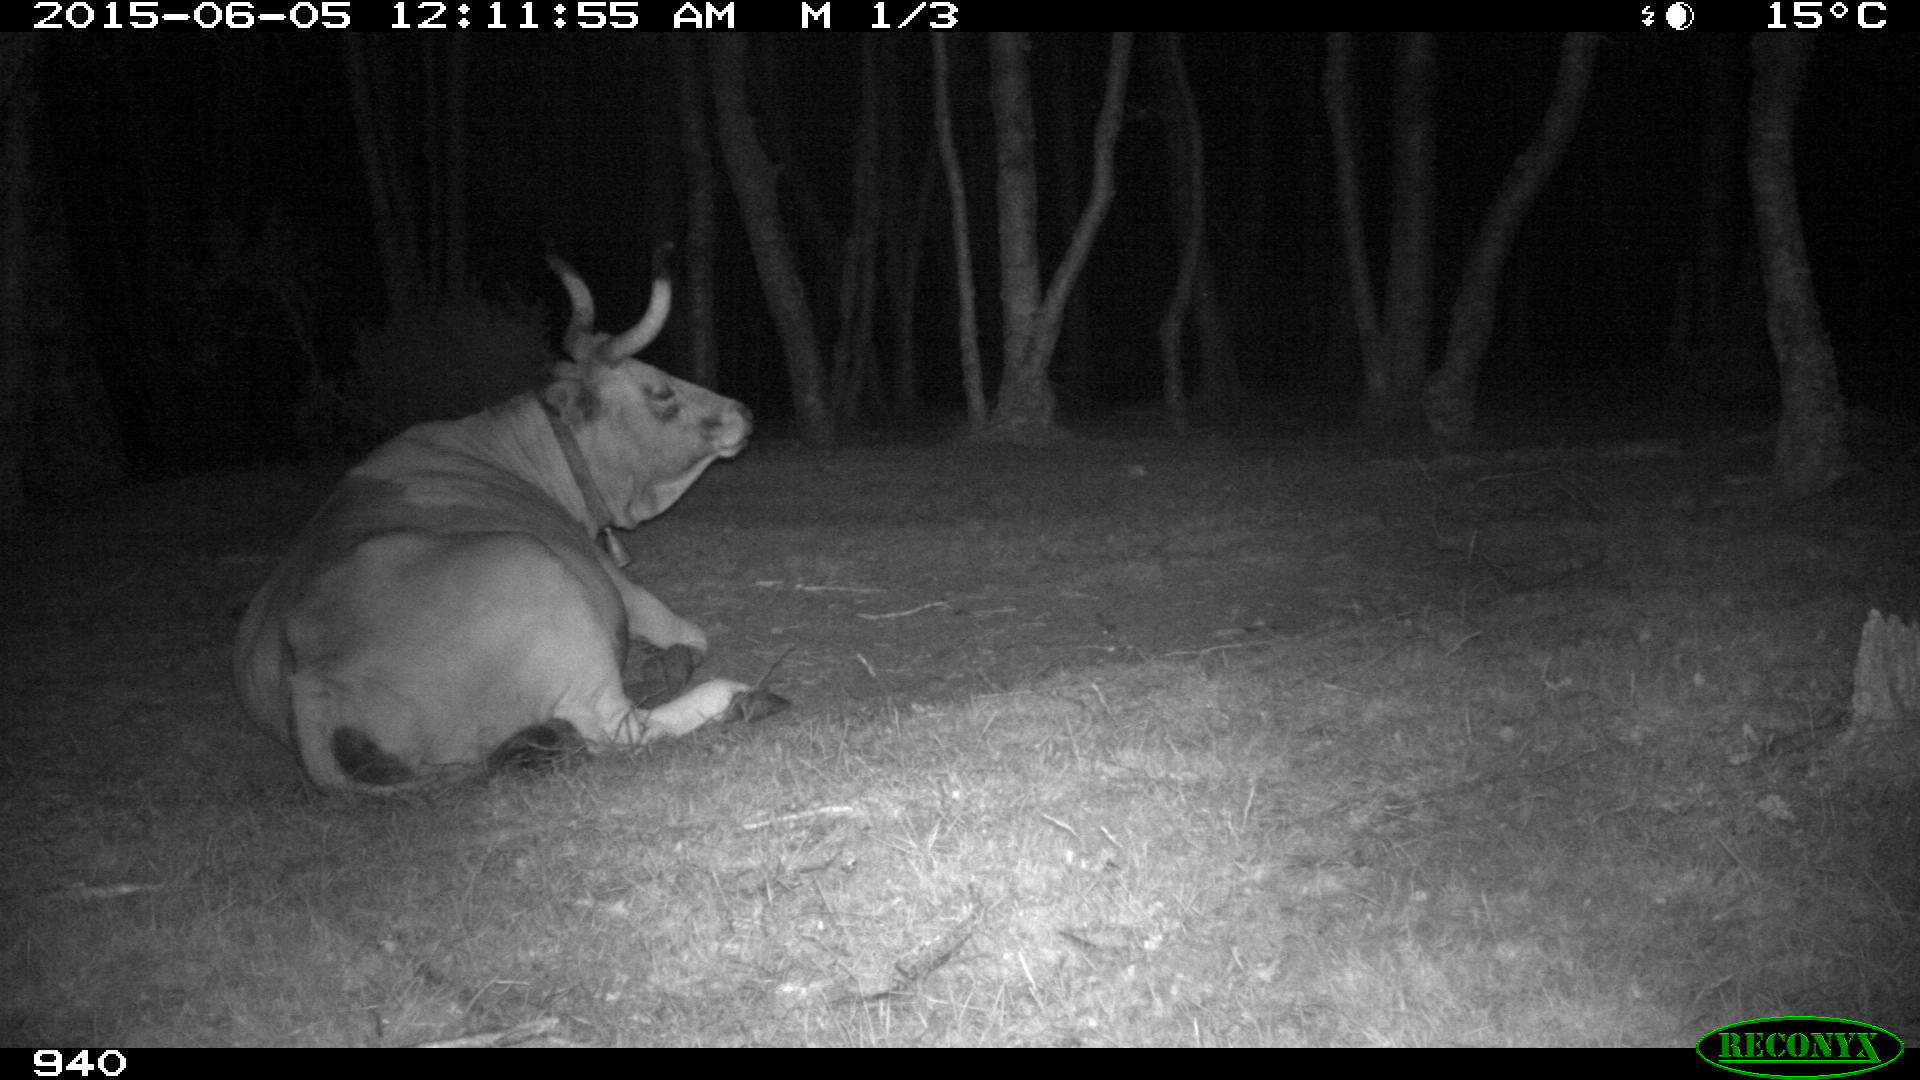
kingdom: Animalia
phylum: Chordata
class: Mammalia
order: Artiodactyla
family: Bovidae
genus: Bos
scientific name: Bos taurus
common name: Domesticated cattle
